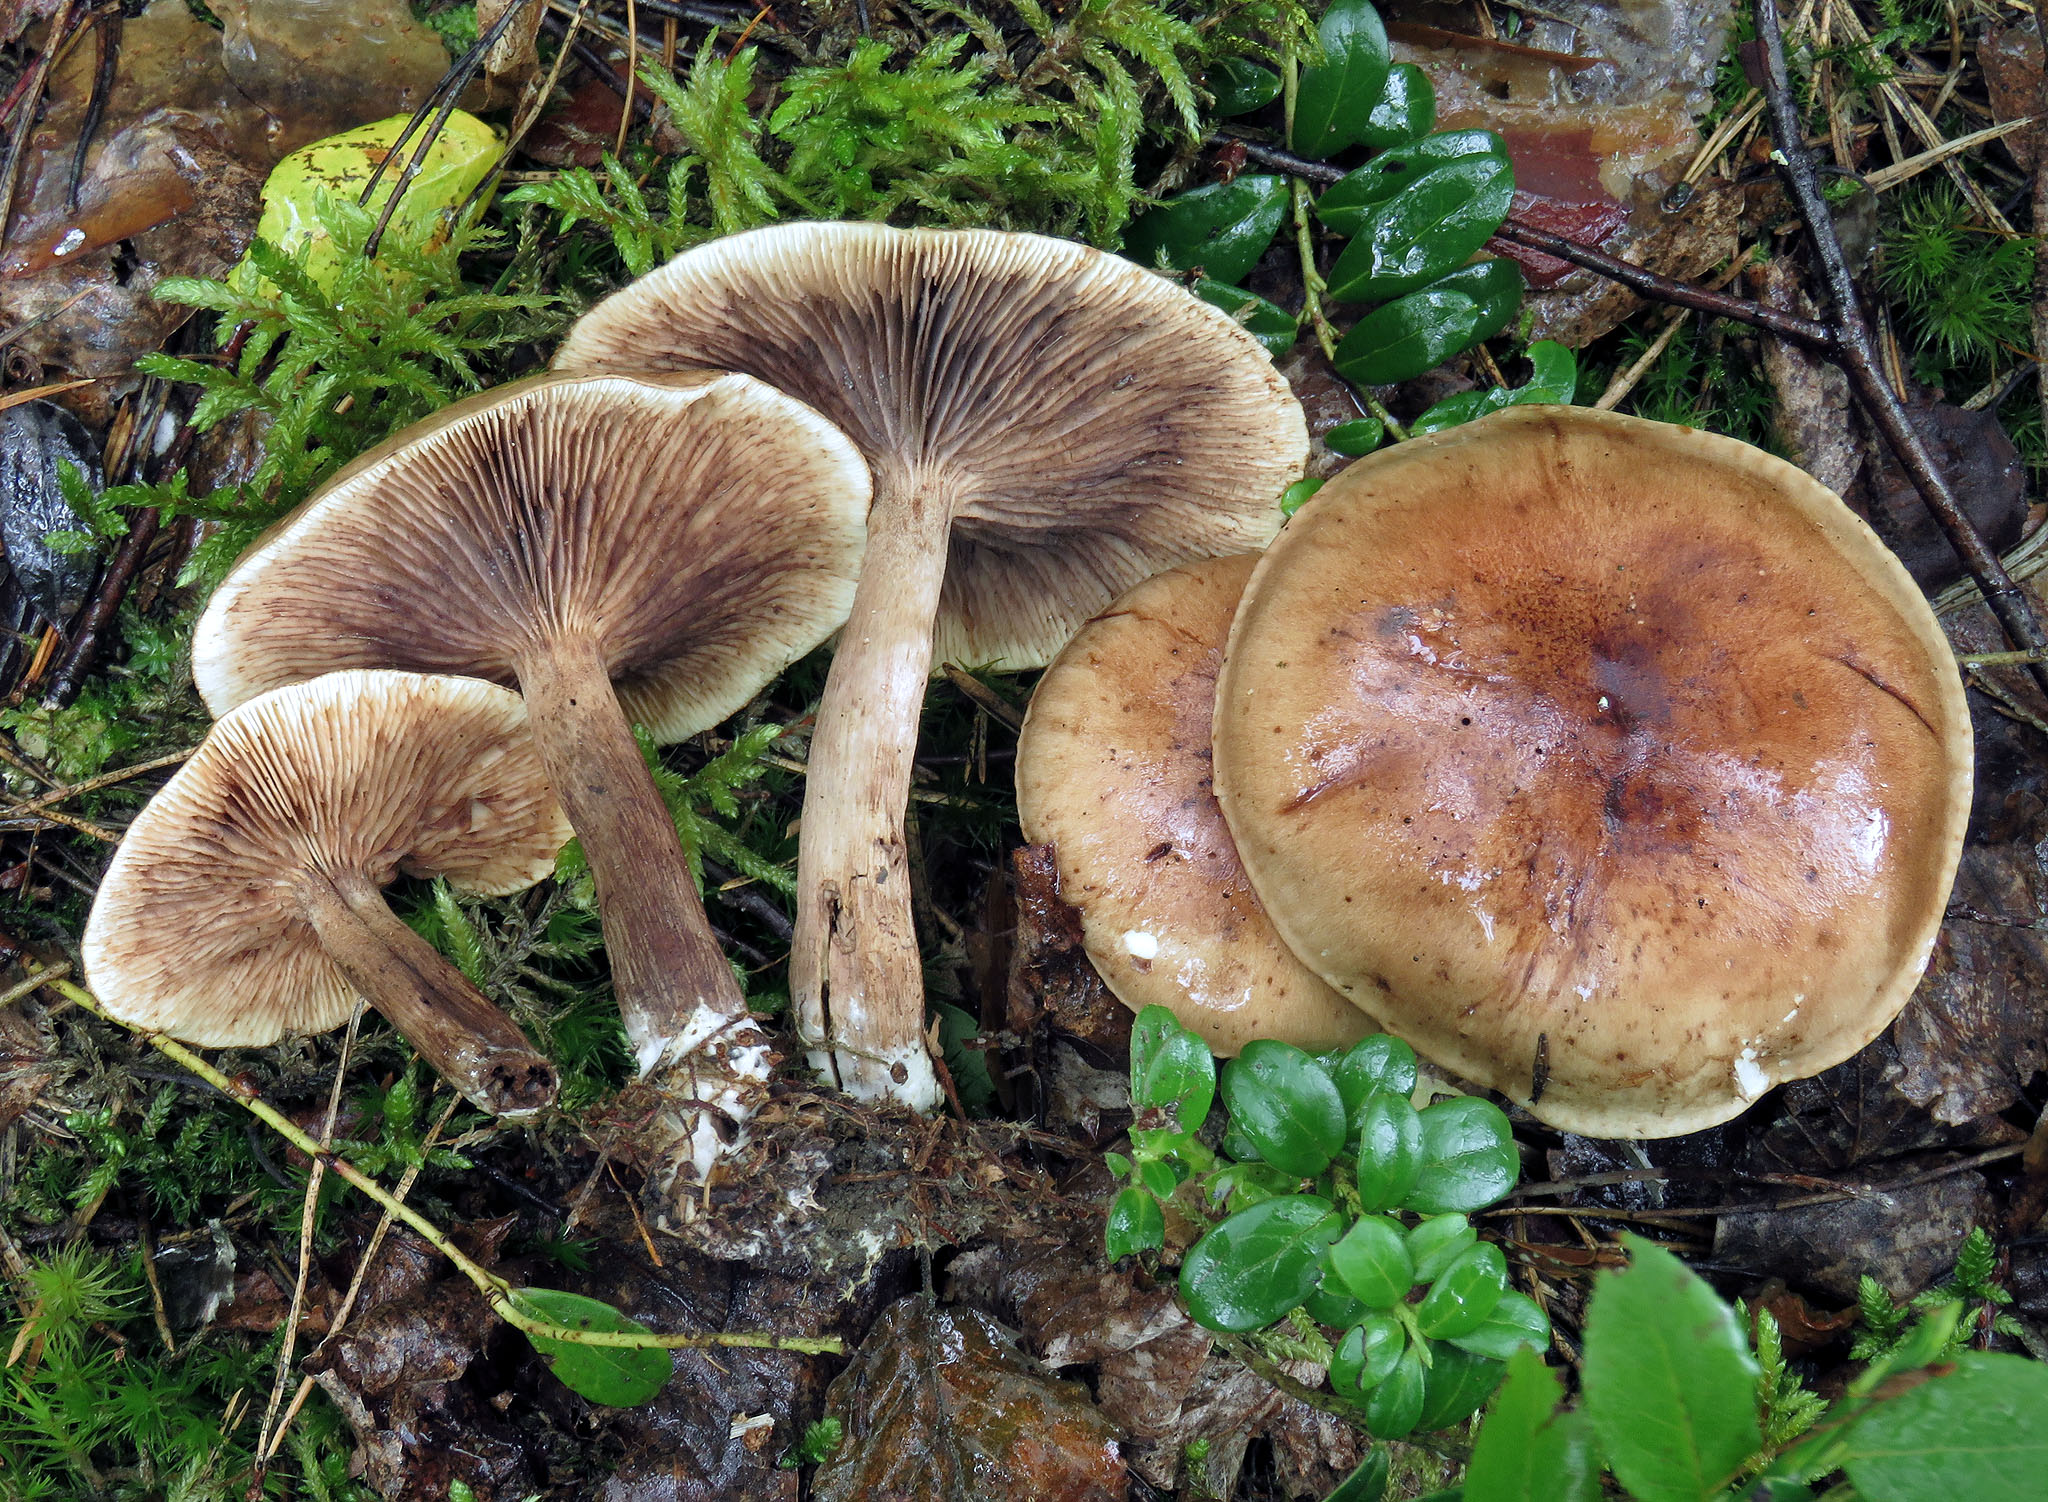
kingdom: Fungi
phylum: Basidiomycota
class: Agaricomycetes
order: Agaricales
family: Tricholomataceae
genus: Tricholoma
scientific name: Tricholoma fulvum
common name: Birch knight
